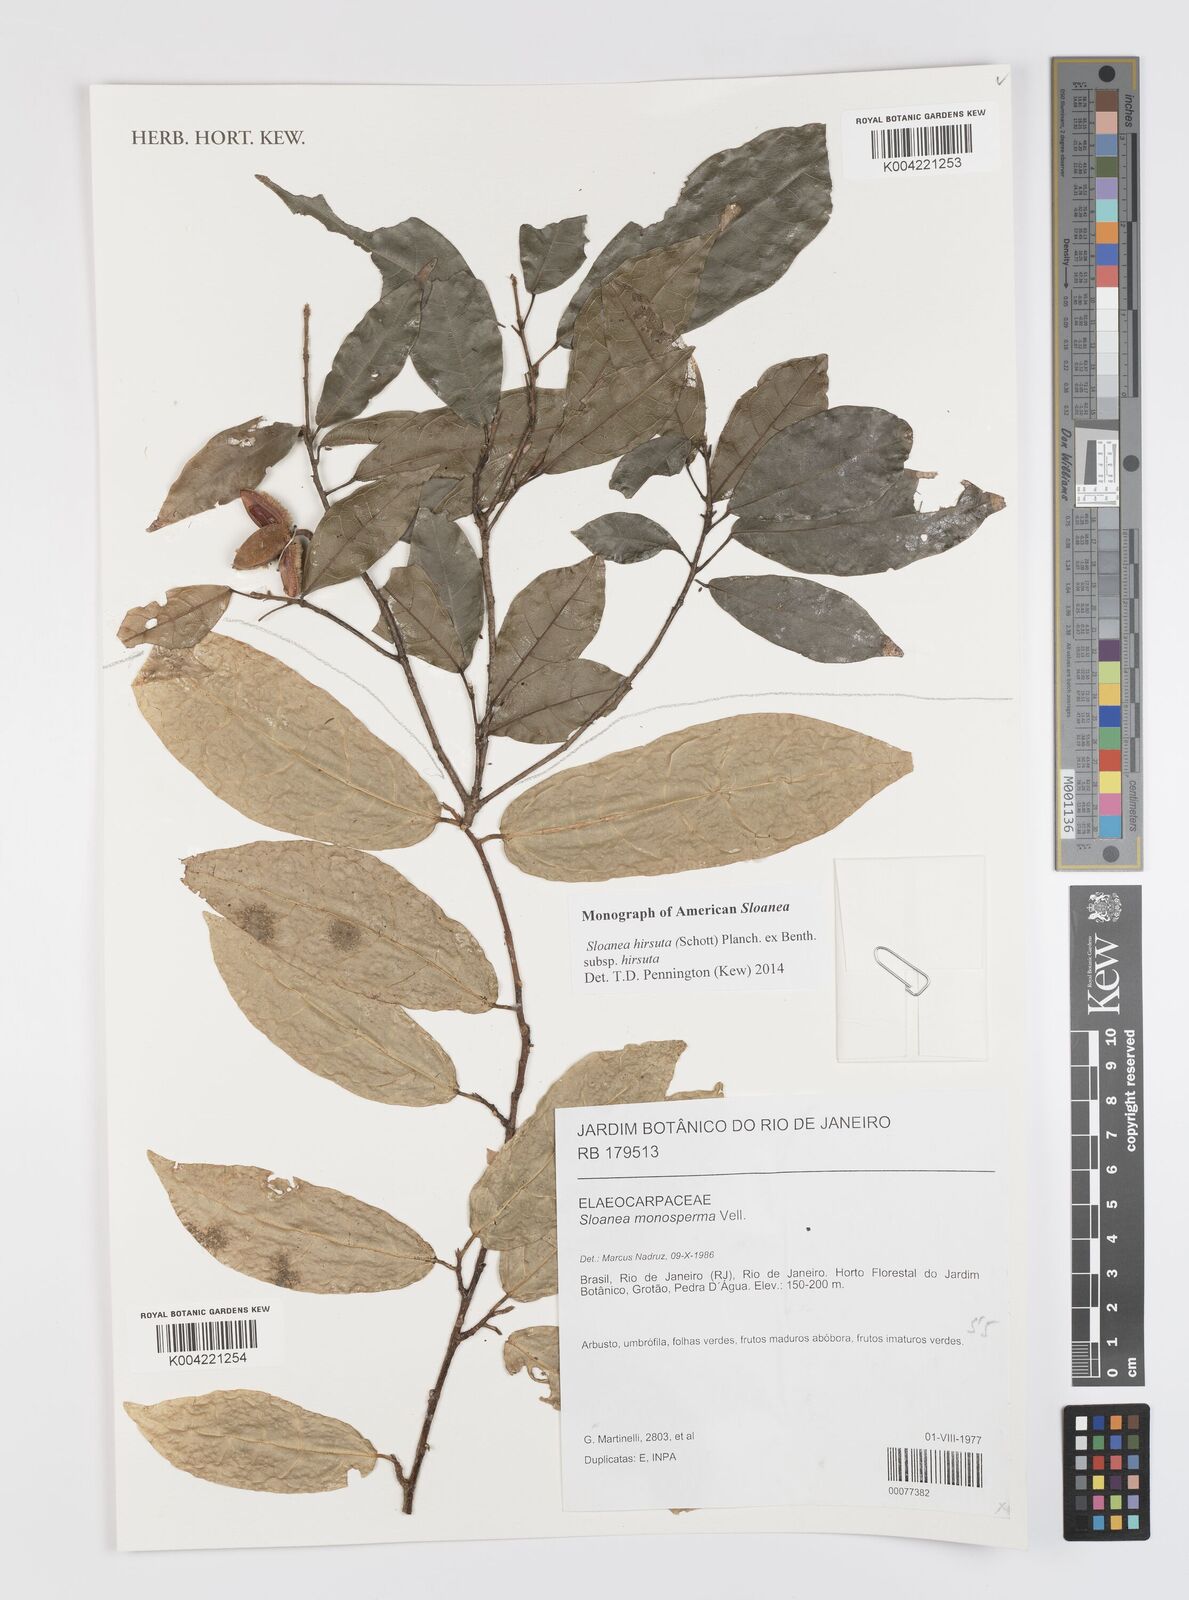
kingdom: Plantae
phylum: Tracheophyta
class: Magnoliopsida
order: Oxalidales
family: Elaeocarpaceae
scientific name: Elaeocarpaceae
